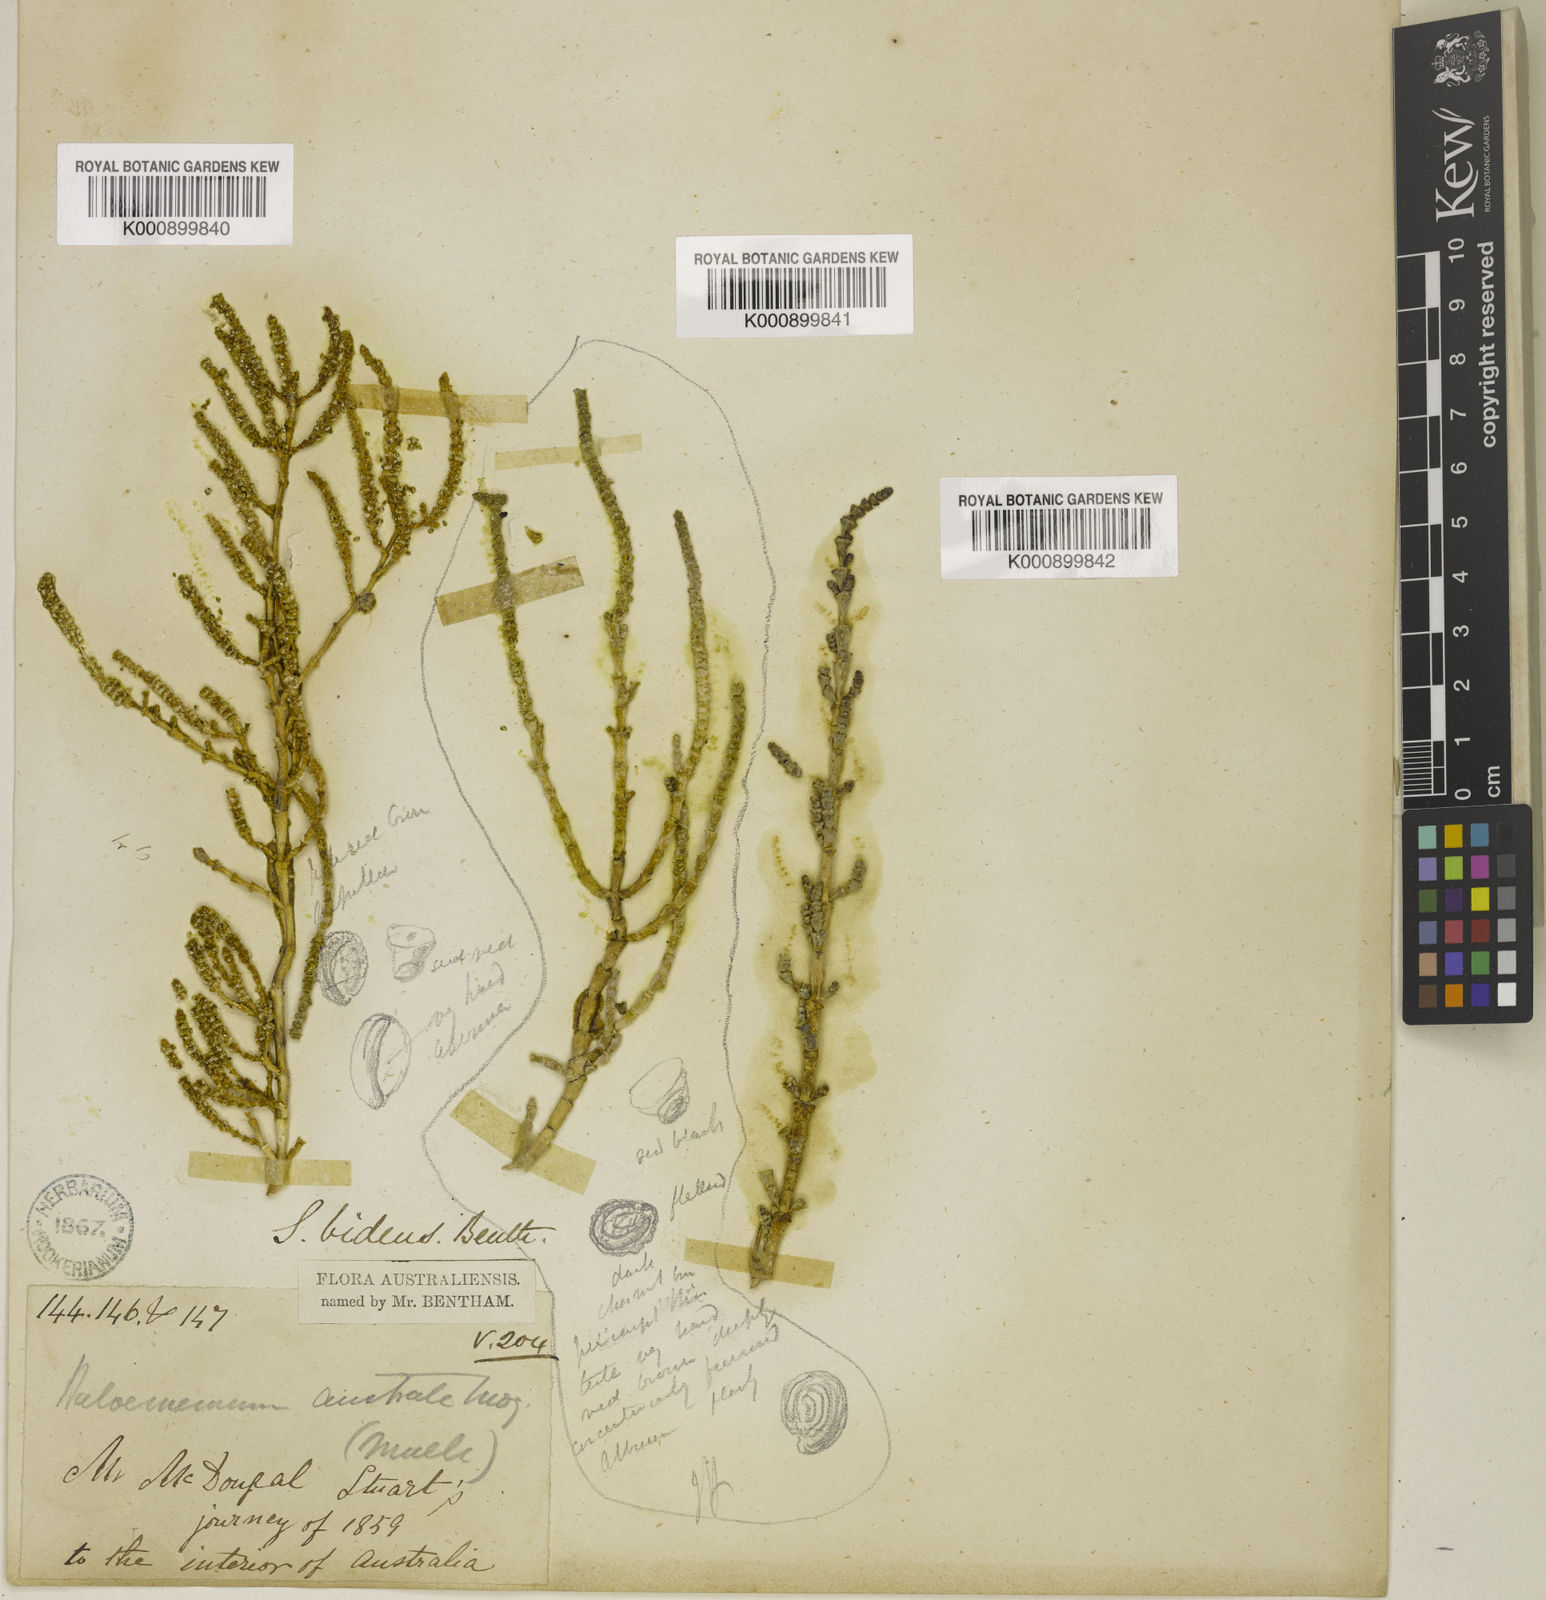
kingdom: Plantae
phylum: Tracheophyta
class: Magnoliopsida
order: Caryophyllales
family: Amaranthaceae
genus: Tecticornia
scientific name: Tecticornia tenuis
